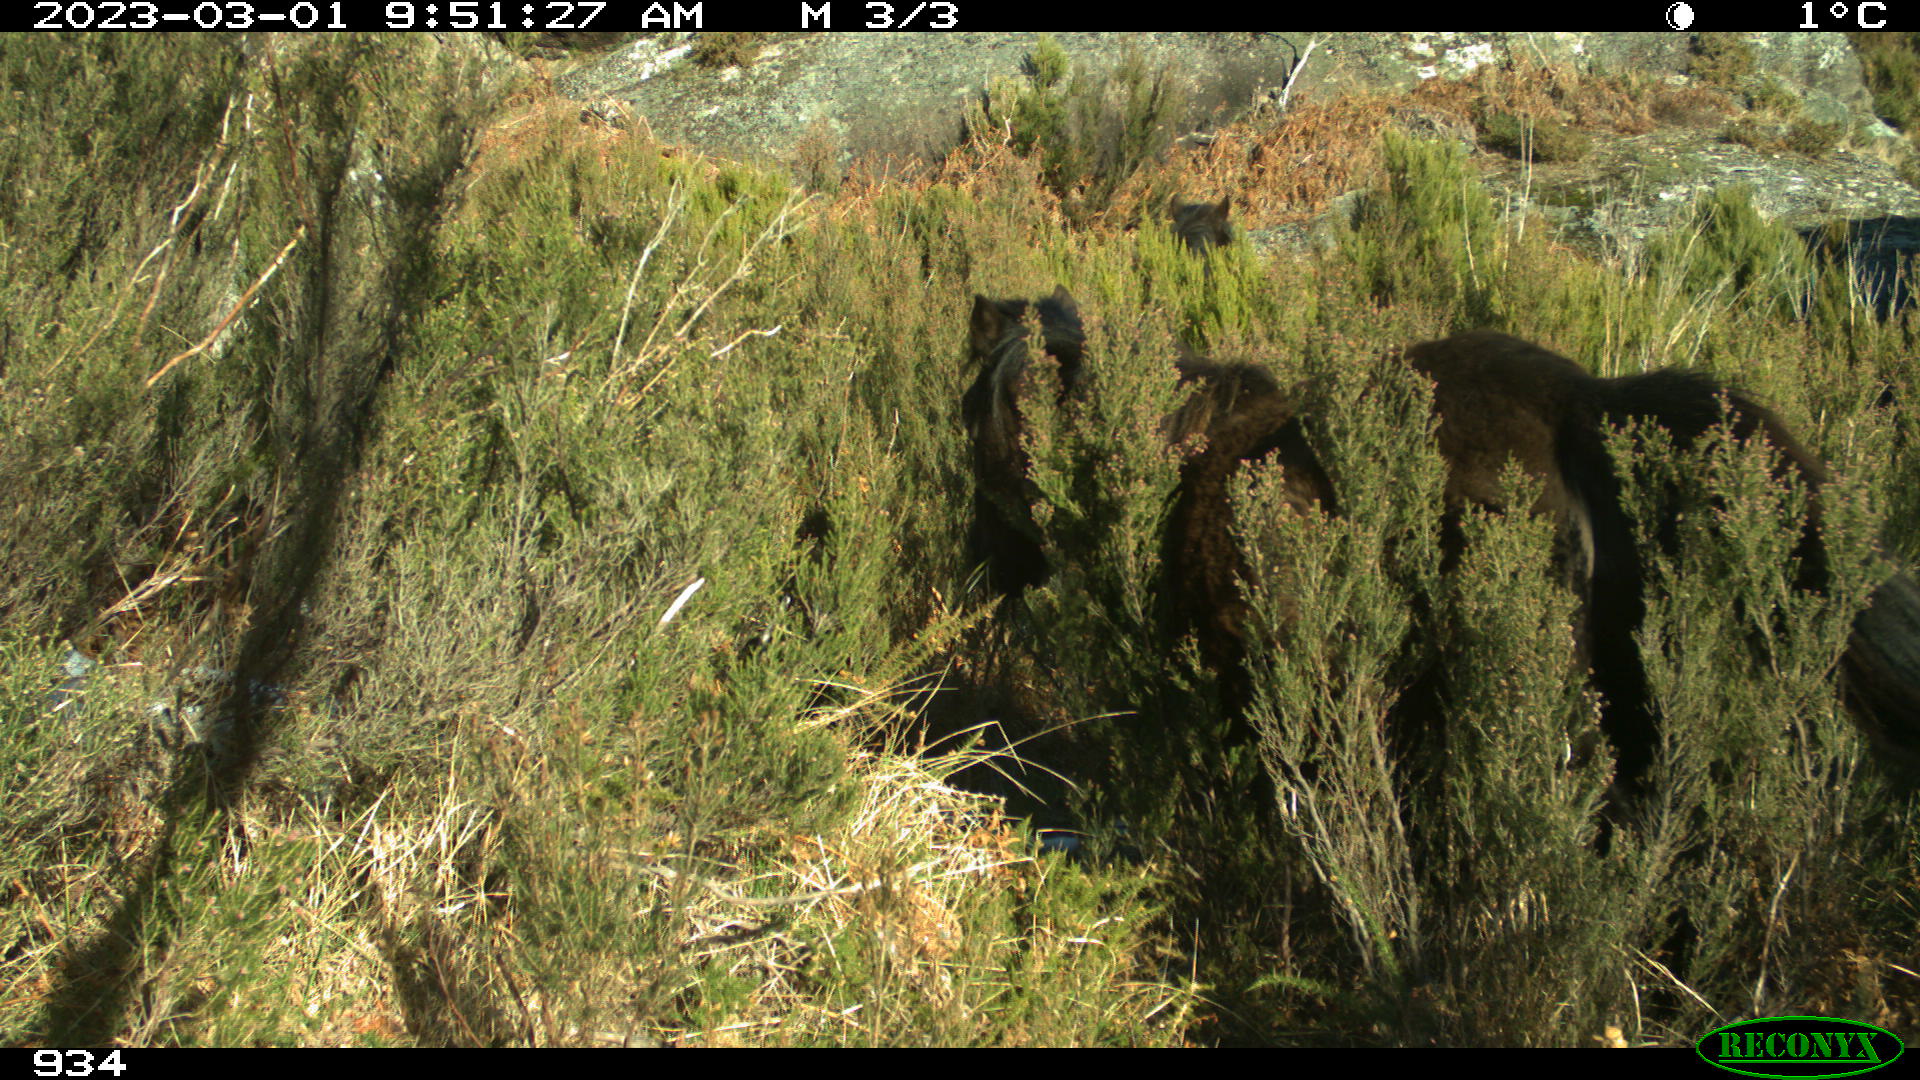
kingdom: Animalia
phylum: Chordata
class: Mammalia
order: Perissodactyla
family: Equidae
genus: Equus
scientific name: Equus caballus
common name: Horse
